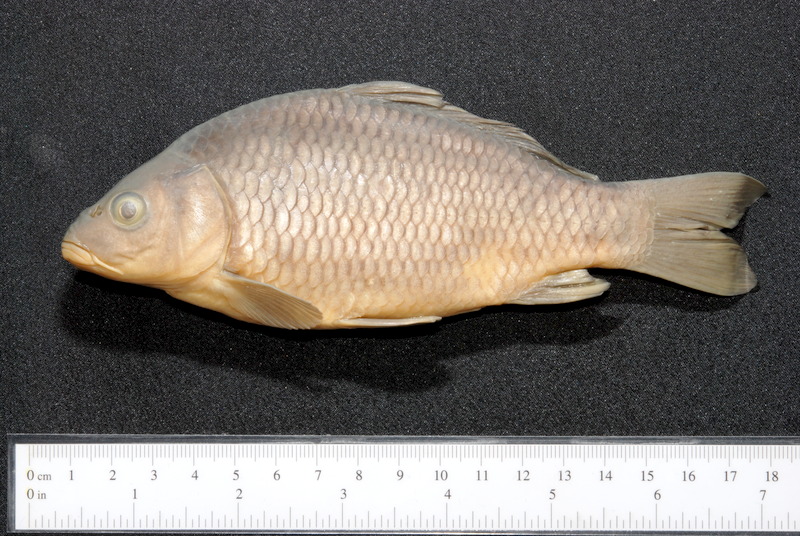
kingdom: Animalia
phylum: Chordata
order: Cypriniformes
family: Cyprinidae
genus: Cyprinus
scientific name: Cyprinus carpio
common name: Common carp
